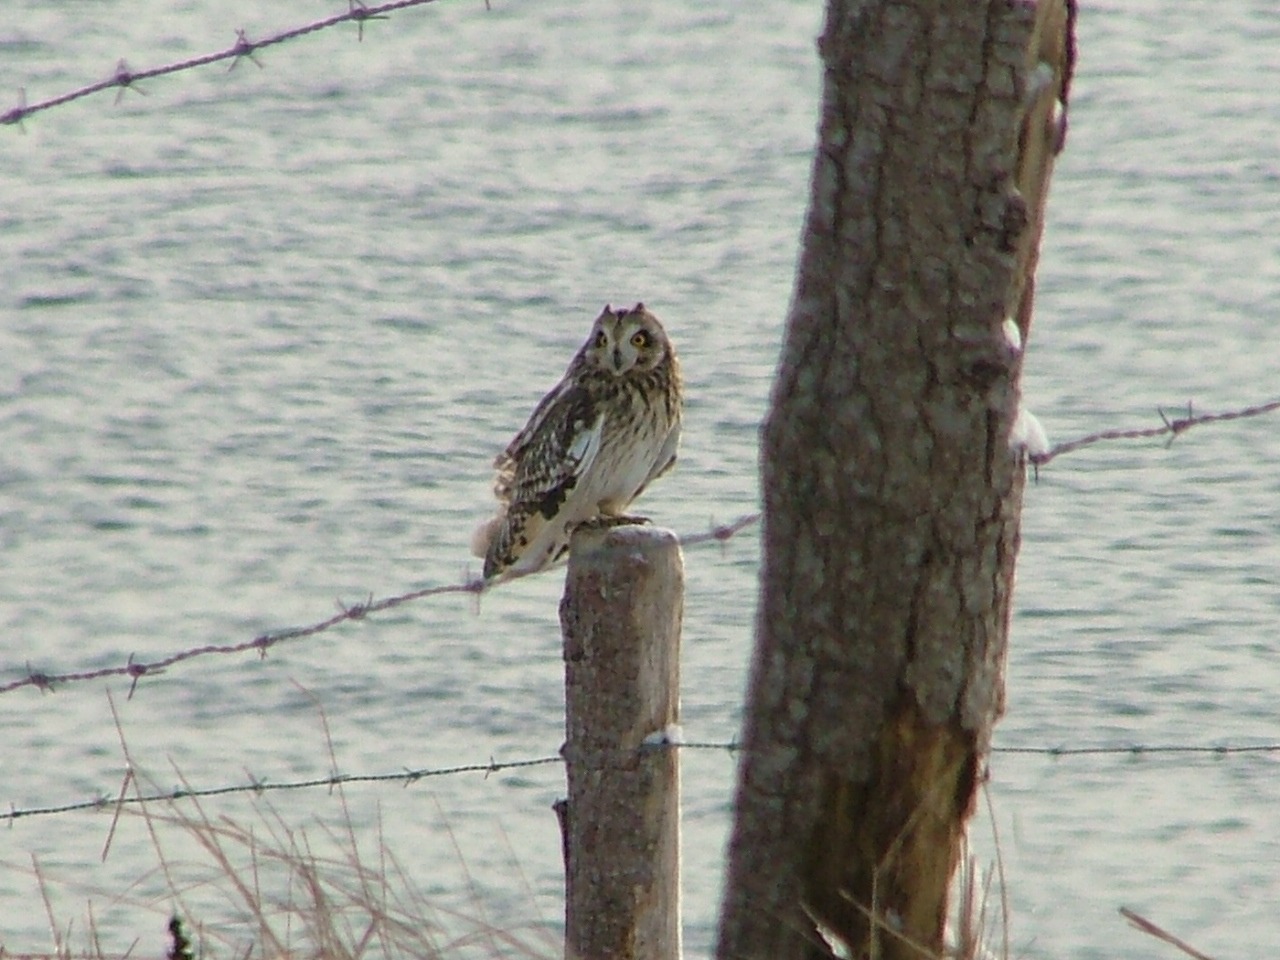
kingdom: Animalia
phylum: Chordata
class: Aves
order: Strigiformes
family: Strigidae
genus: Asio
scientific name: Asio flammeus
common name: Mosehornugle
